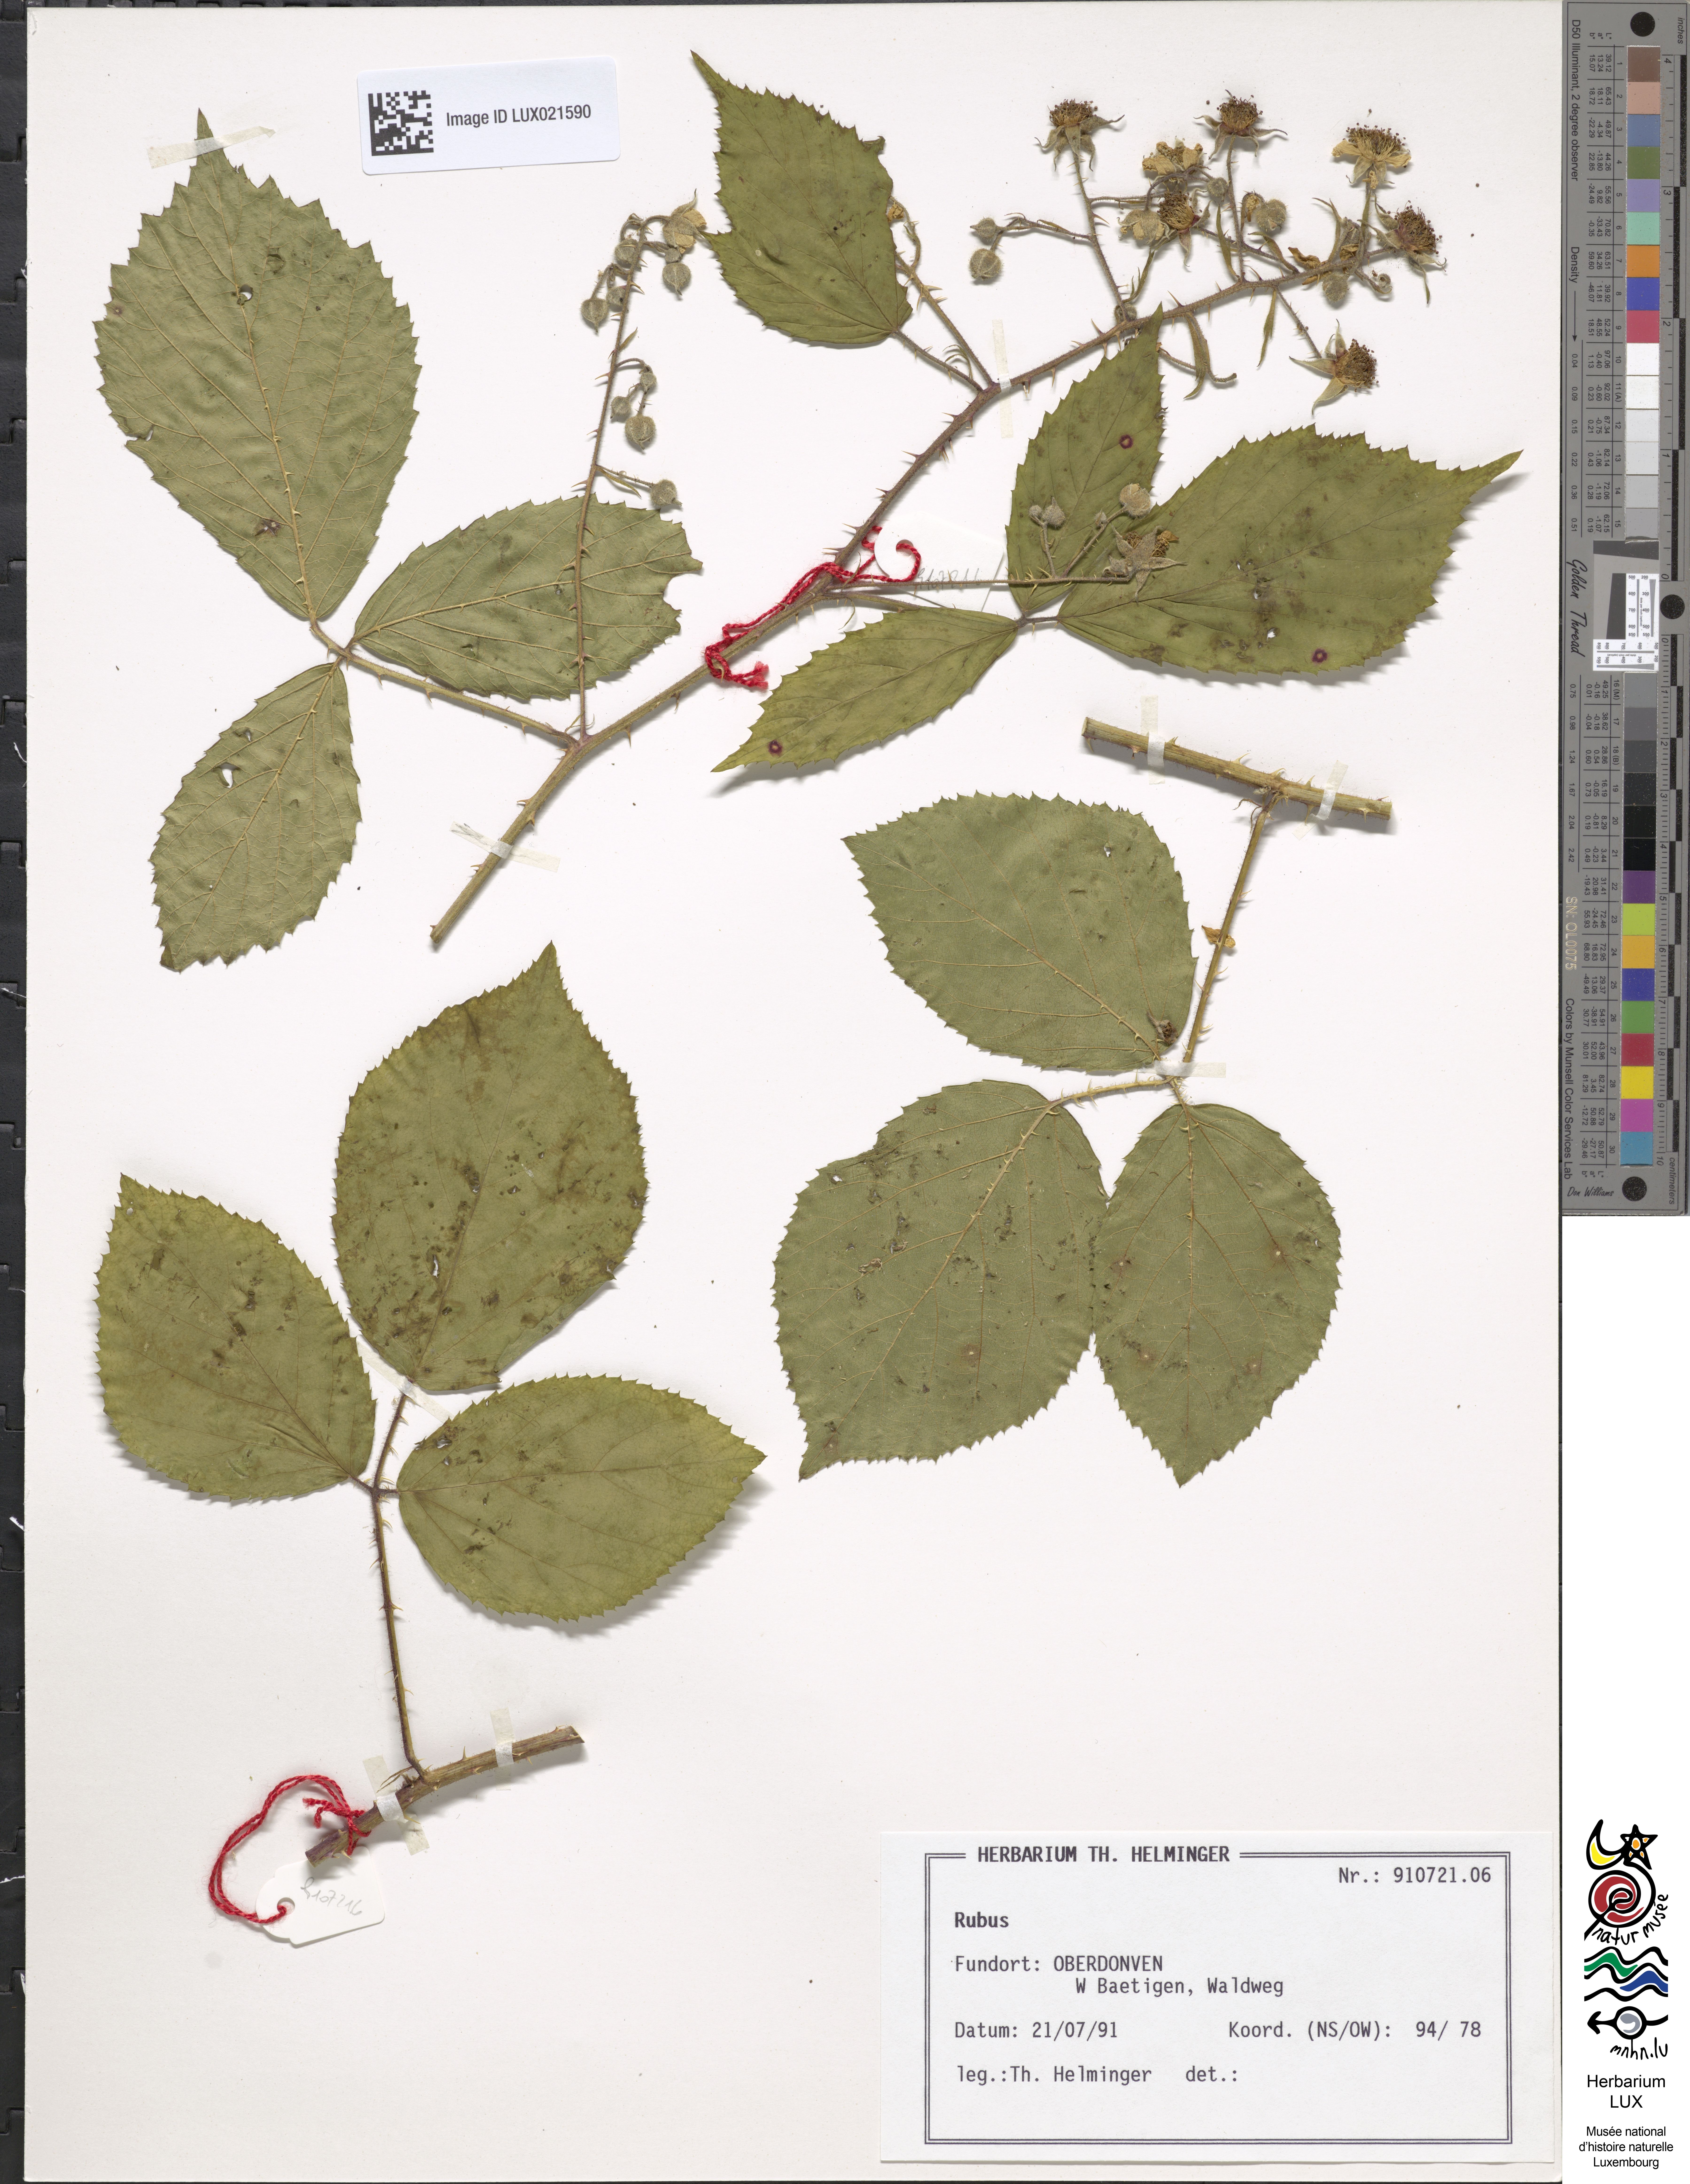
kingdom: Plantae
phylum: Tracheophyta
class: Magnoliopsida
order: Rosales
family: Rosaceae
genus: Rubus
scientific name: Rubus
